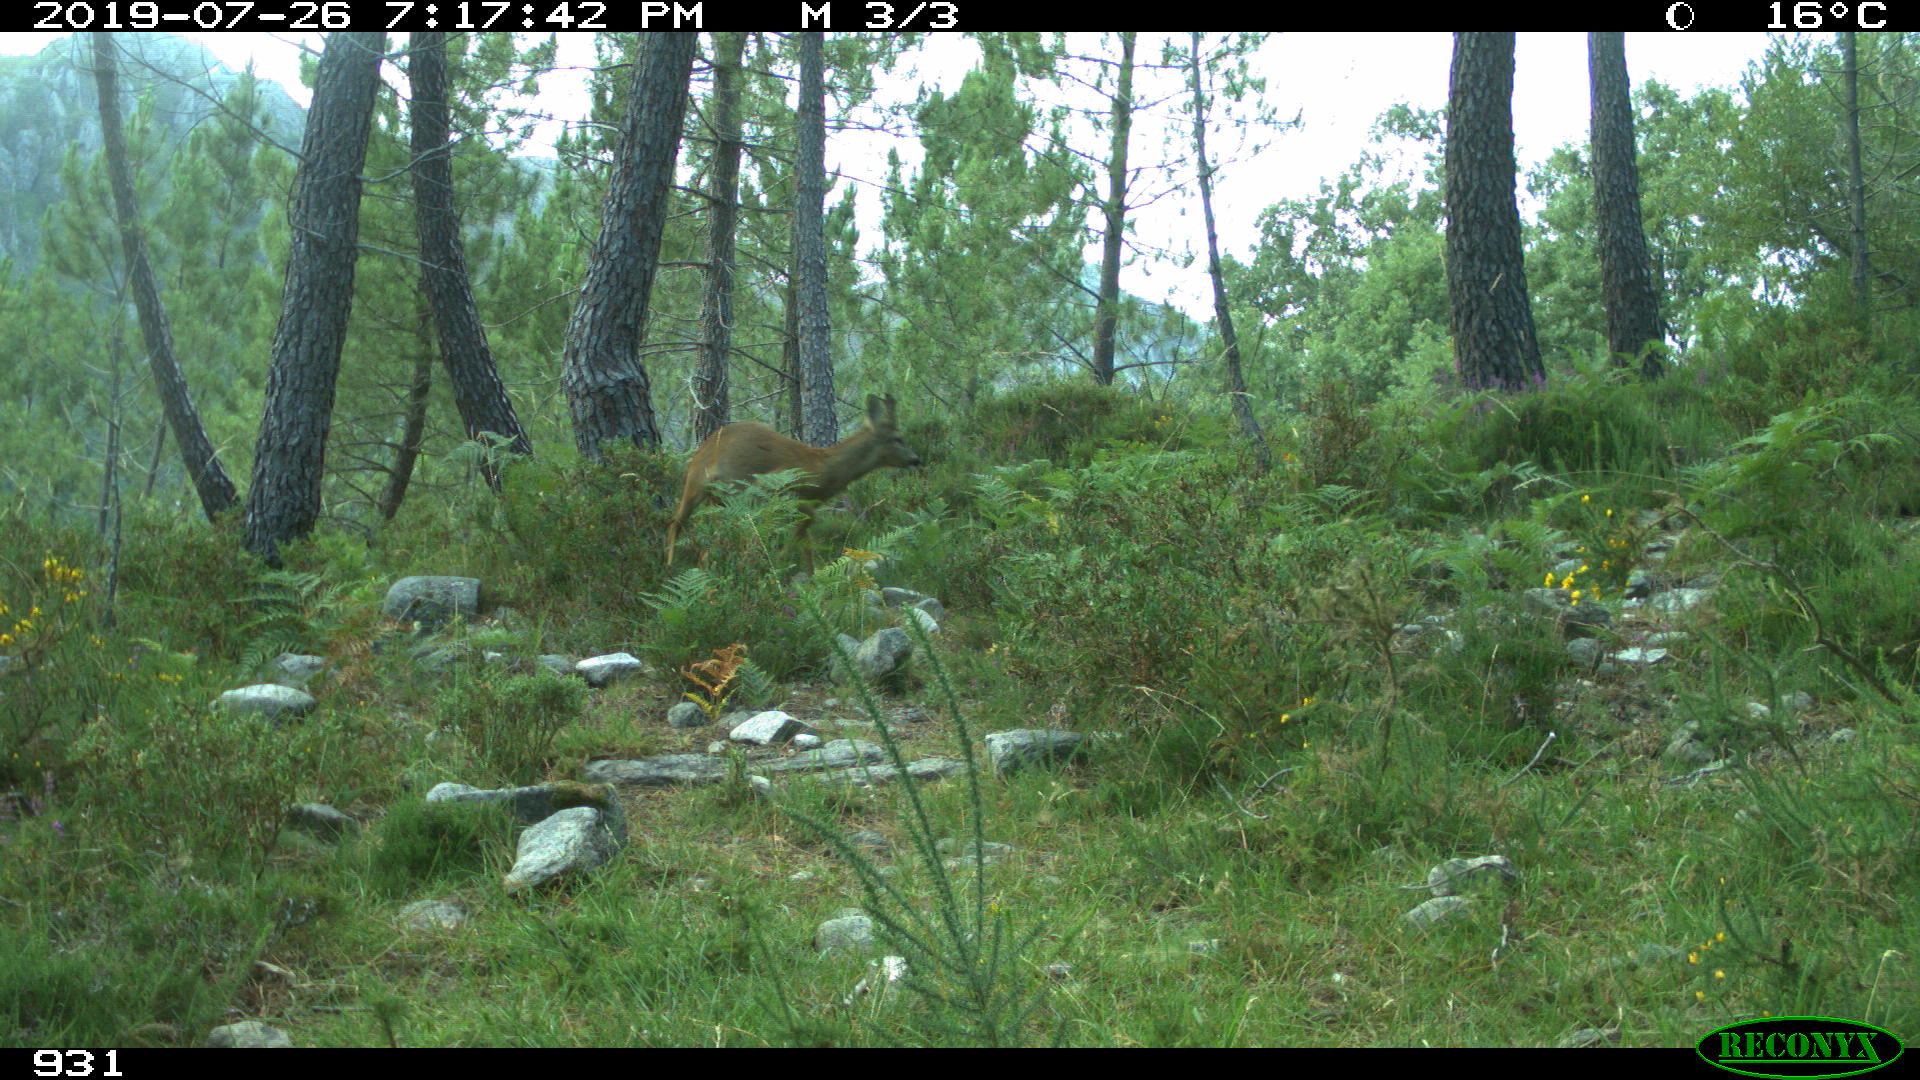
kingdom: Animalia
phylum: Chordata
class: Mammalia
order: Artiodactyla
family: Cervidae
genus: Capreolus
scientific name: Capreolus capreolus
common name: Western roe deer
